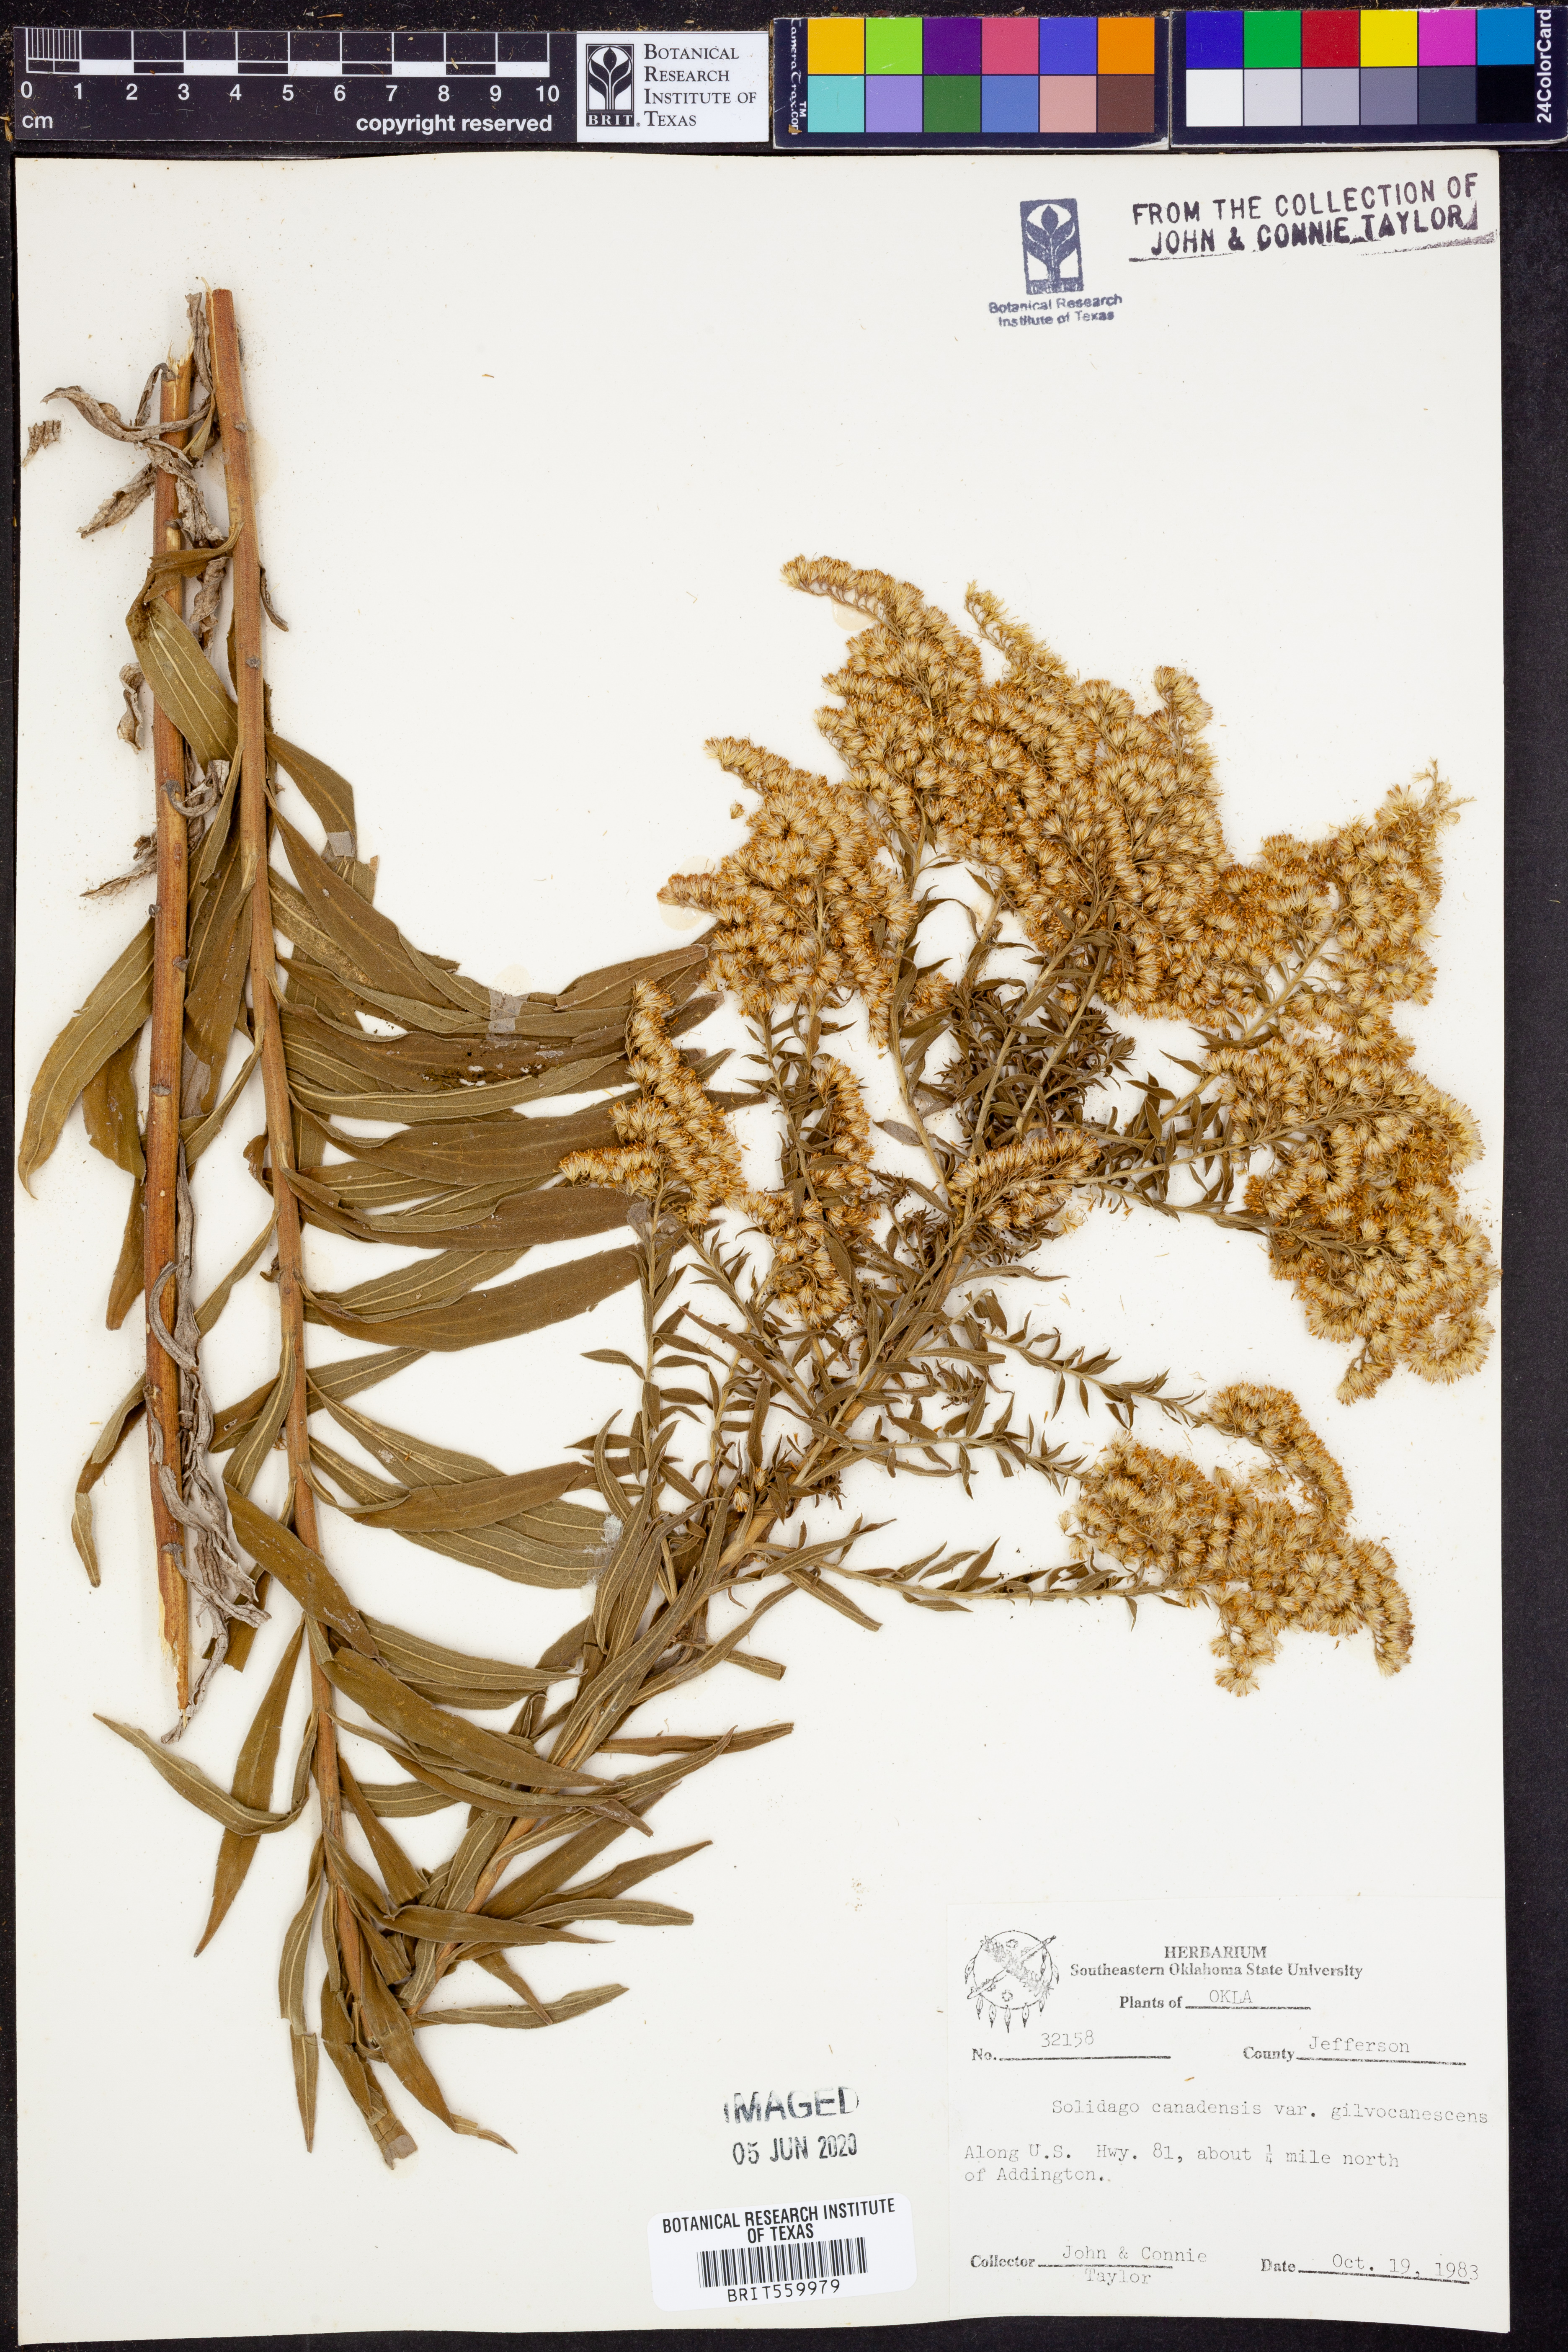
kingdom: Plantae
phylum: Tracheophyta
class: Magnoliopsida
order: Asterales
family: Asteraceae
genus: Solidago
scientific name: Solidago altissima
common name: Late goldenrod
